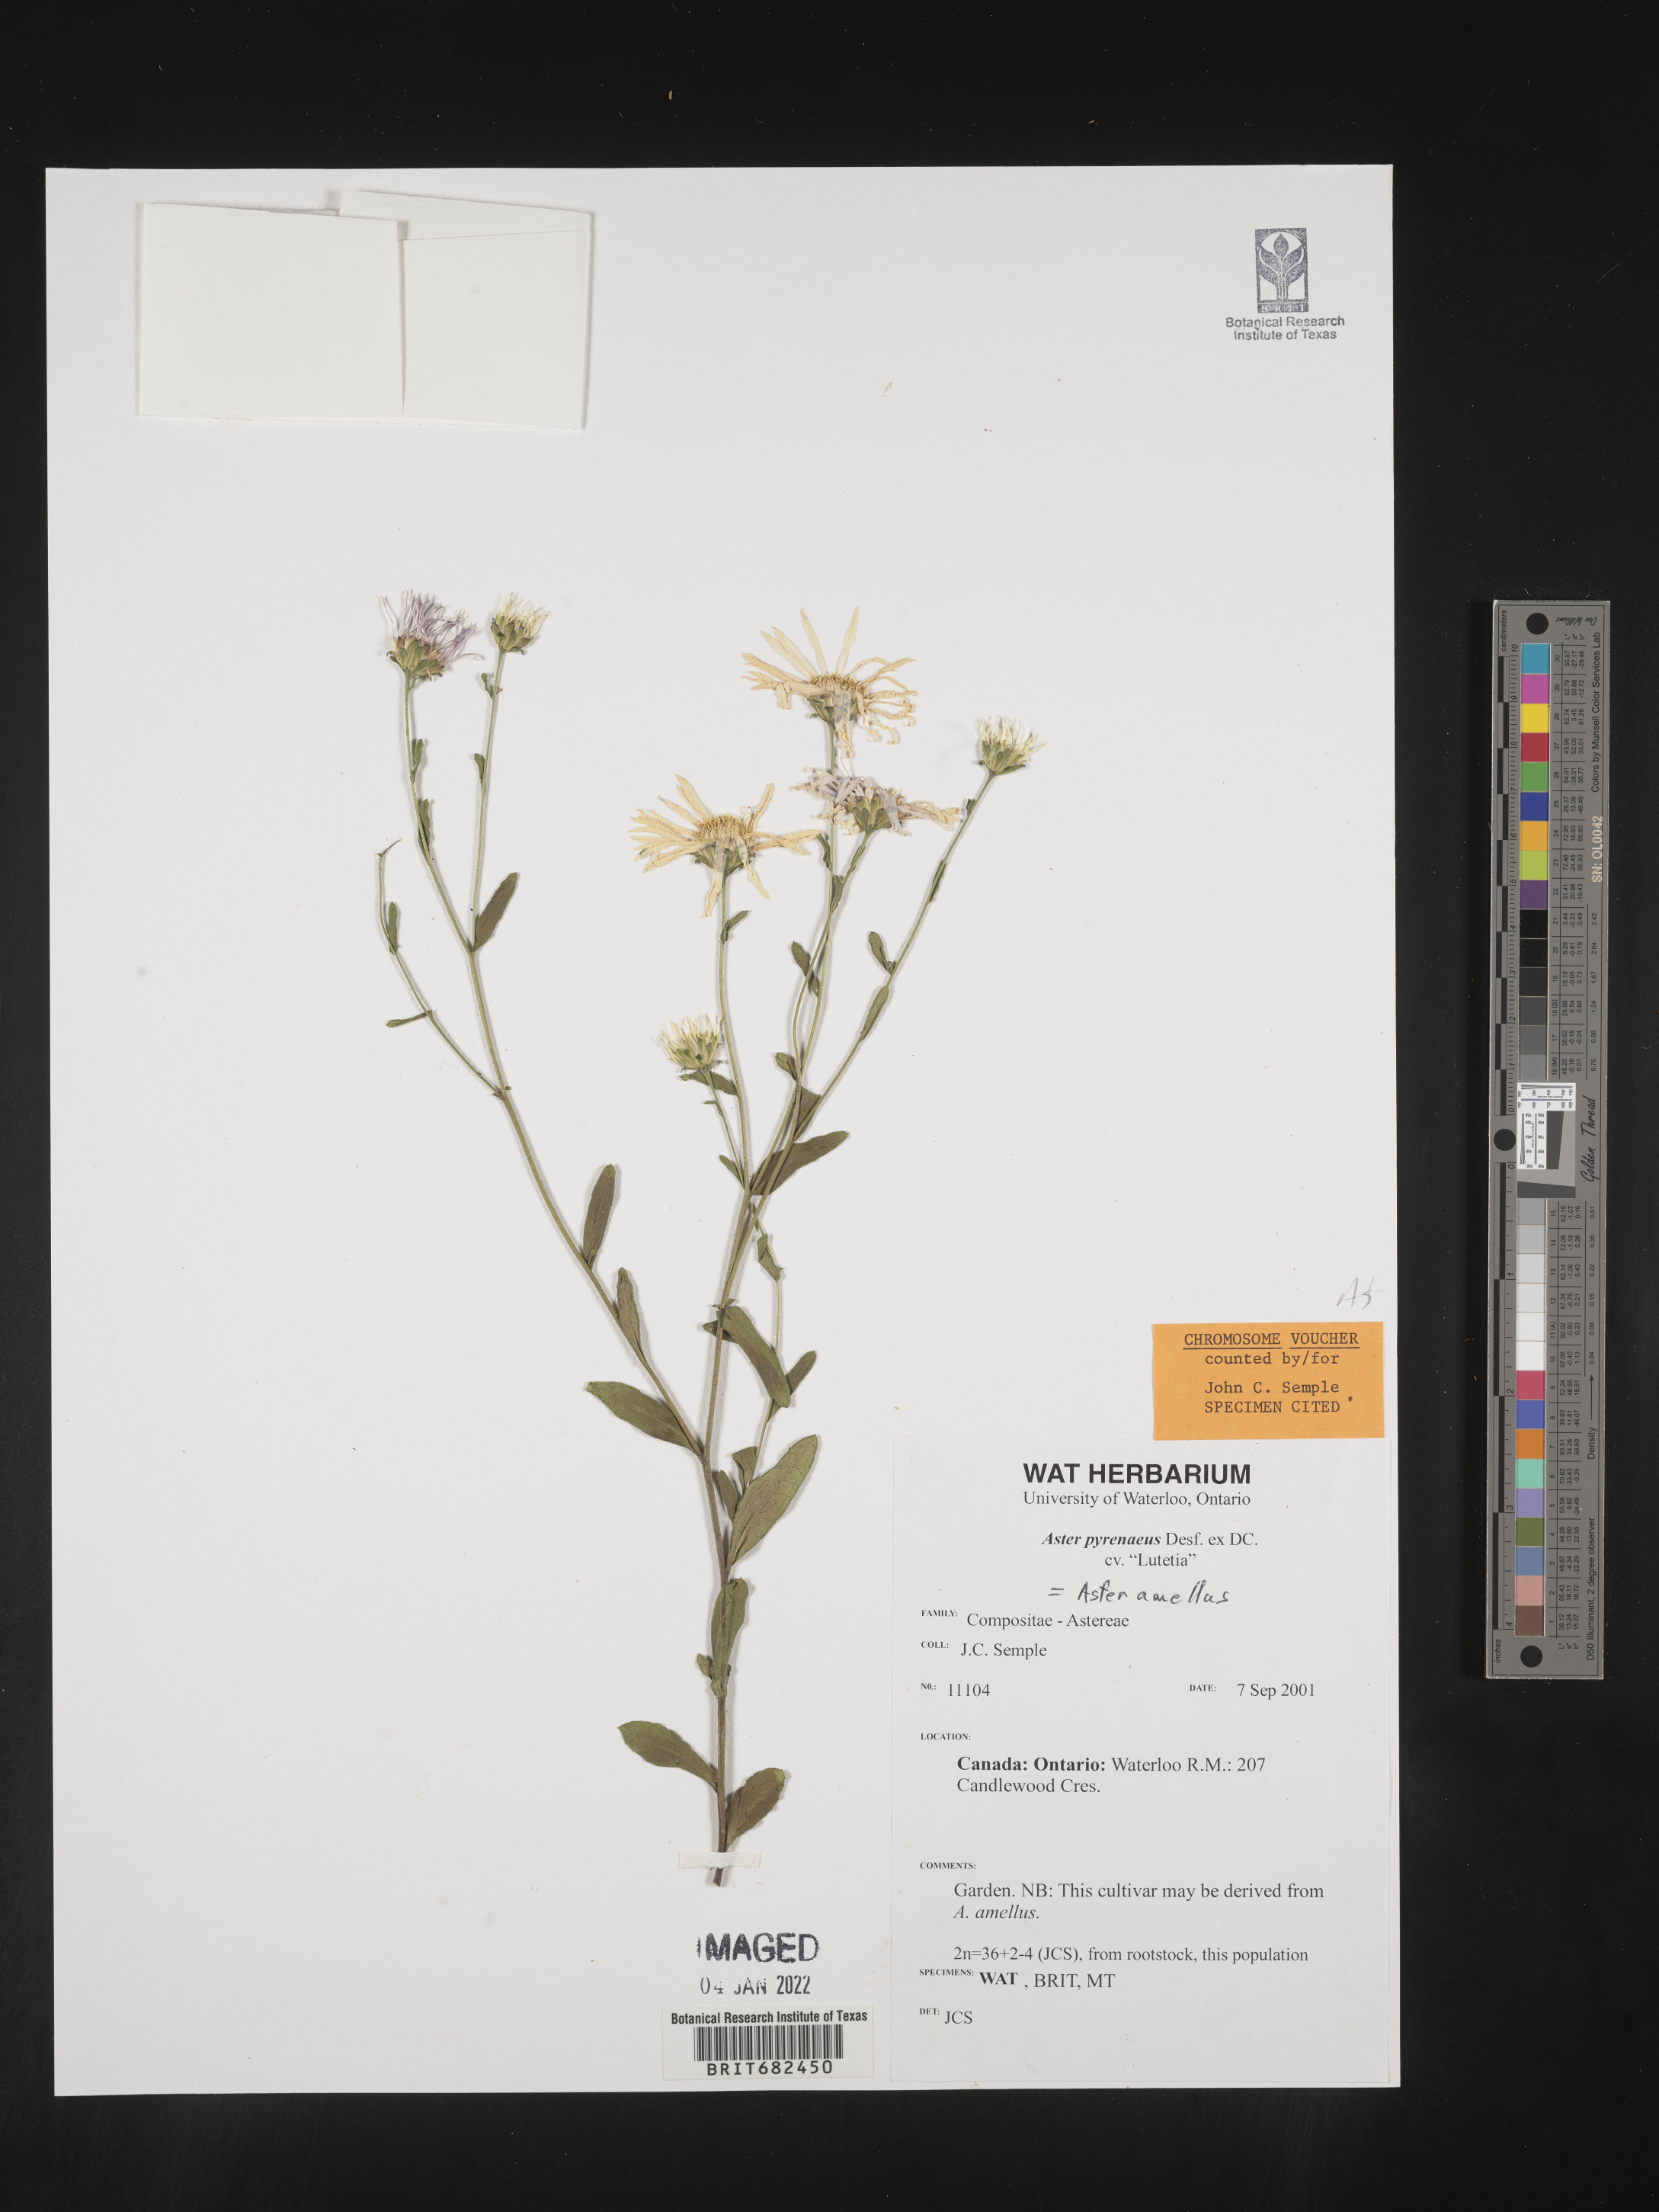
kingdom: Plantae
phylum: Tracheophyta
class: Magnoliopsida
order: Asterales
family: Asteraceae
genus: Aster
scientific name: Aster
